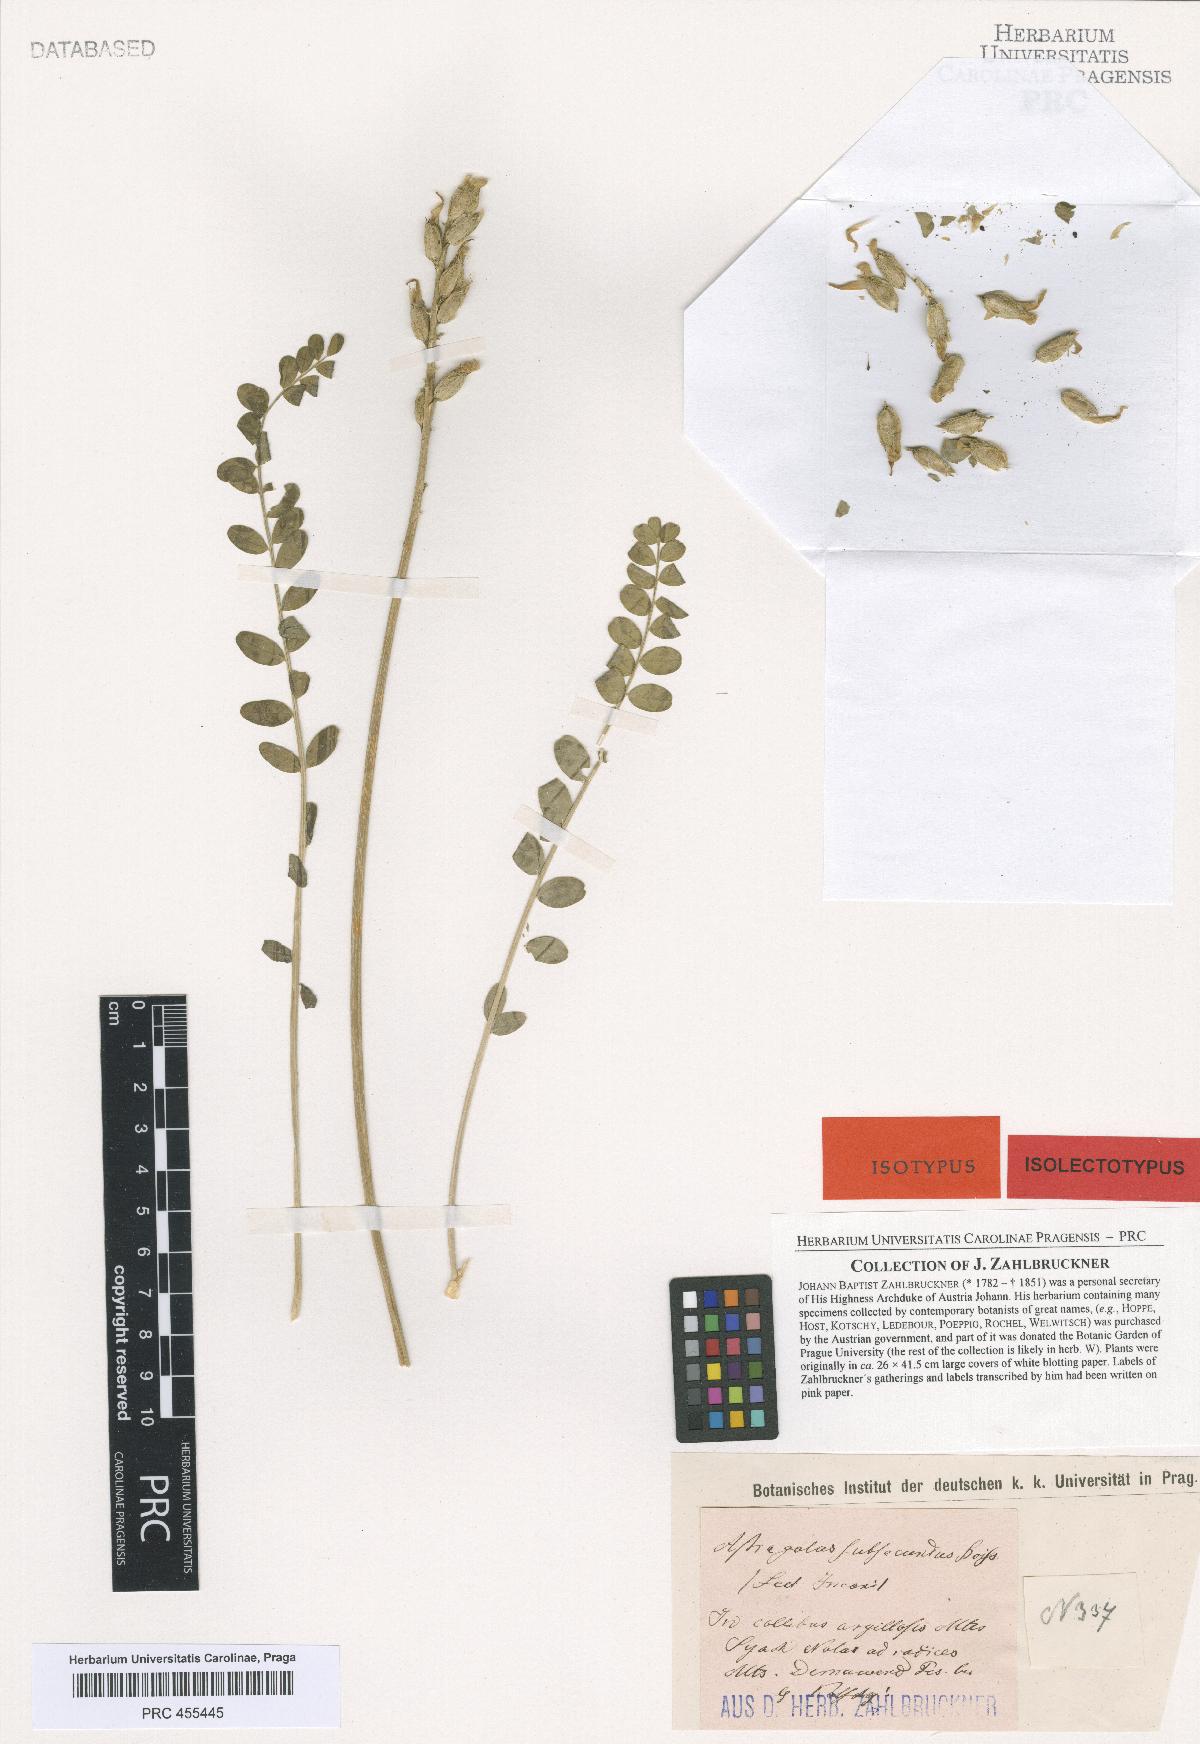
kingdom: Plantae
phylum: Tracheophyta
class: Magnoliopsida
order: Fabales
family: Fabaceae
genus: Astragalus
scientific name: Astragalus subsecundus
